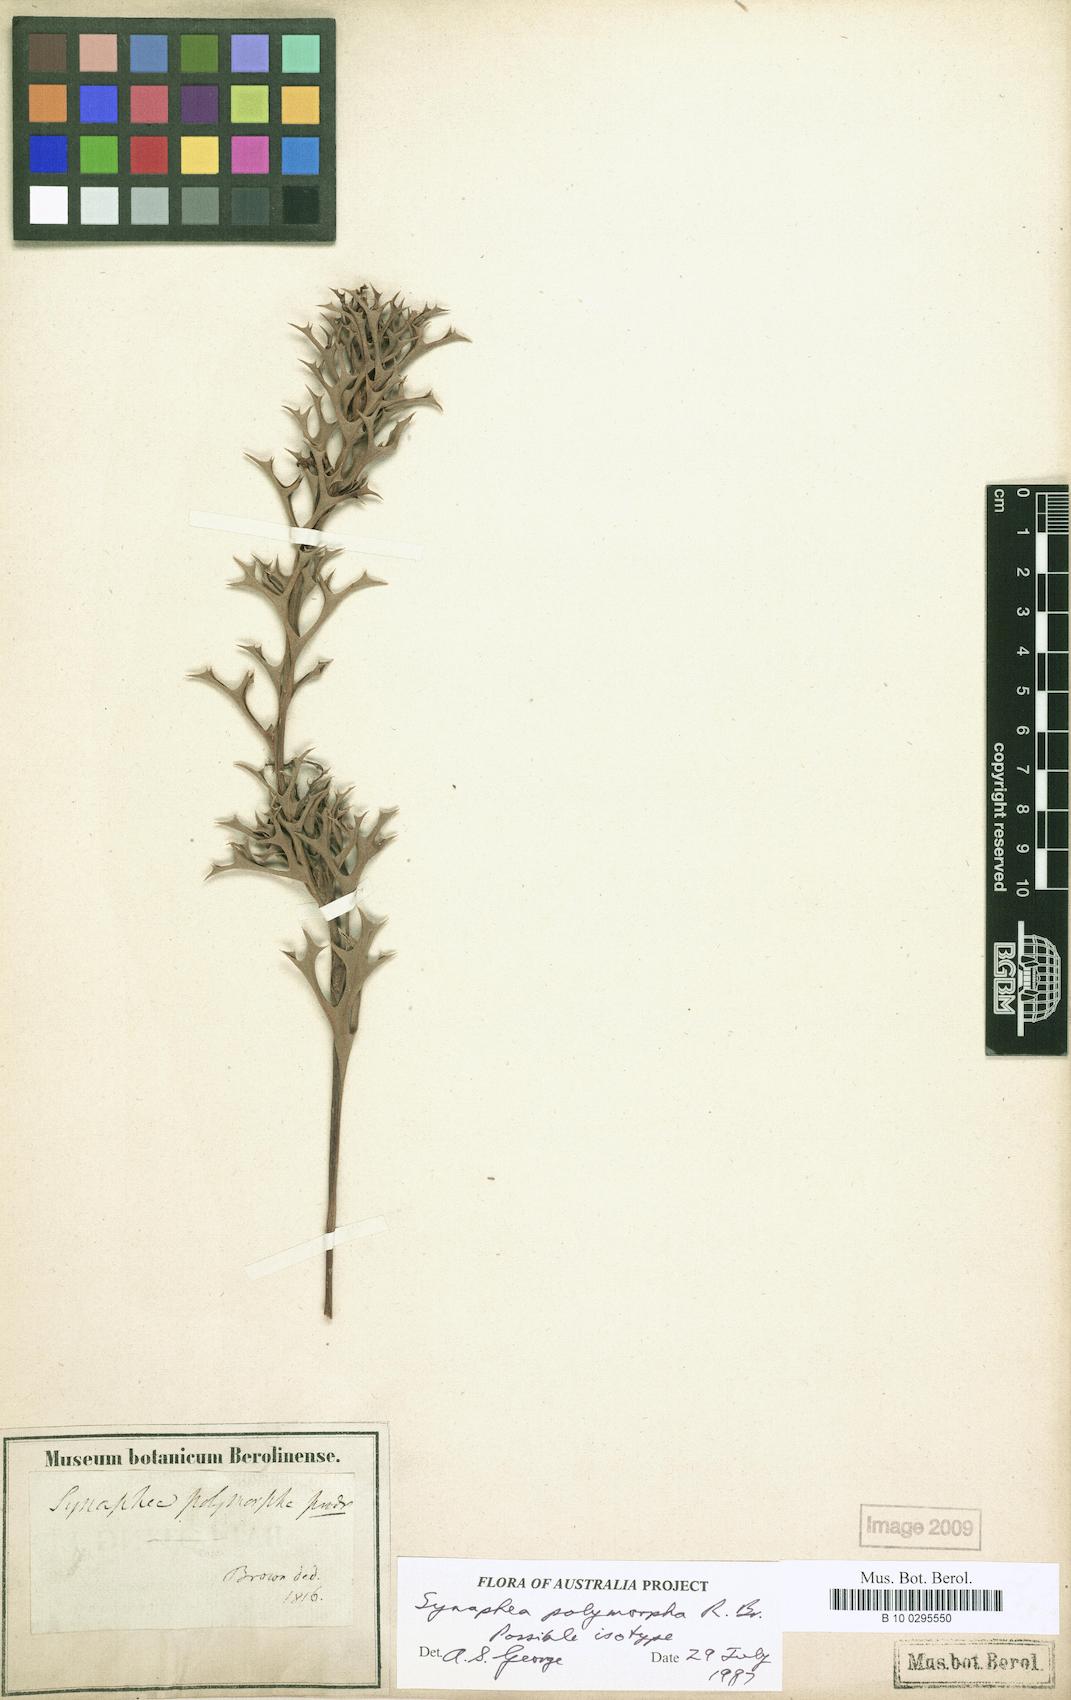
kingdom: Plantae
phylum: Tracheophyta
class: Magnoliopsida
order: Proteales
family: Proteaceae
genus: Synaphea
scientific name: Synaphea polymorpha
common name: Albany synaphea
